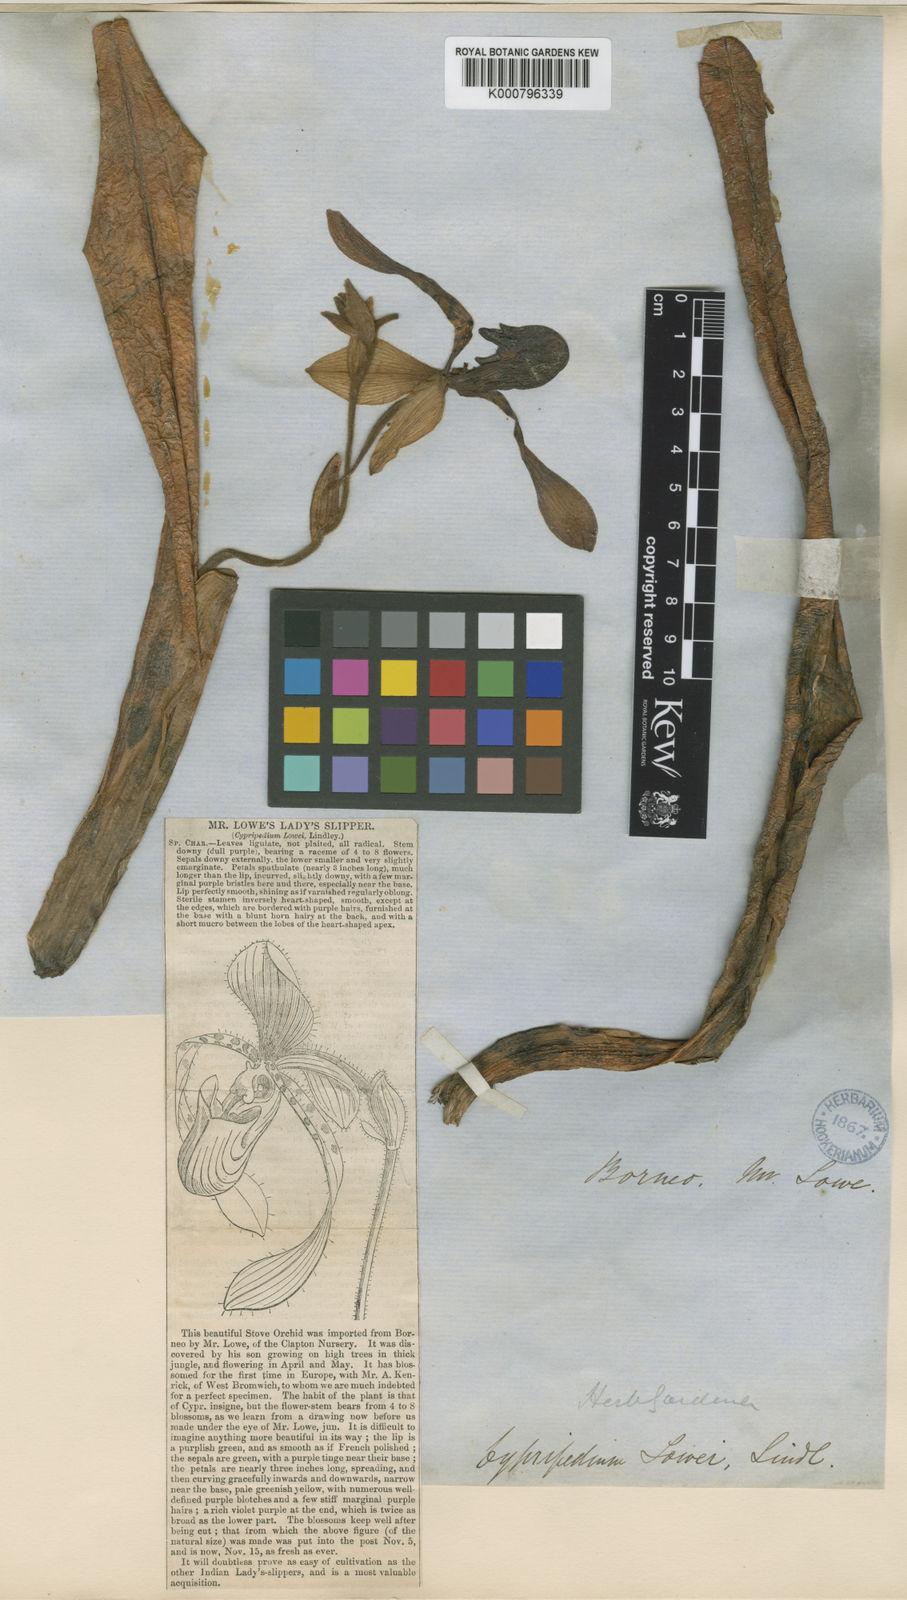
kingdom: Plantae
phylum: Tracheophyta
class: Liliopsida
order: Asparagales
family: Orchidaceae
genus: Paphiopedilum
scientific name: Paphiopedilum lowii
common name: Low's paphiopedilum
